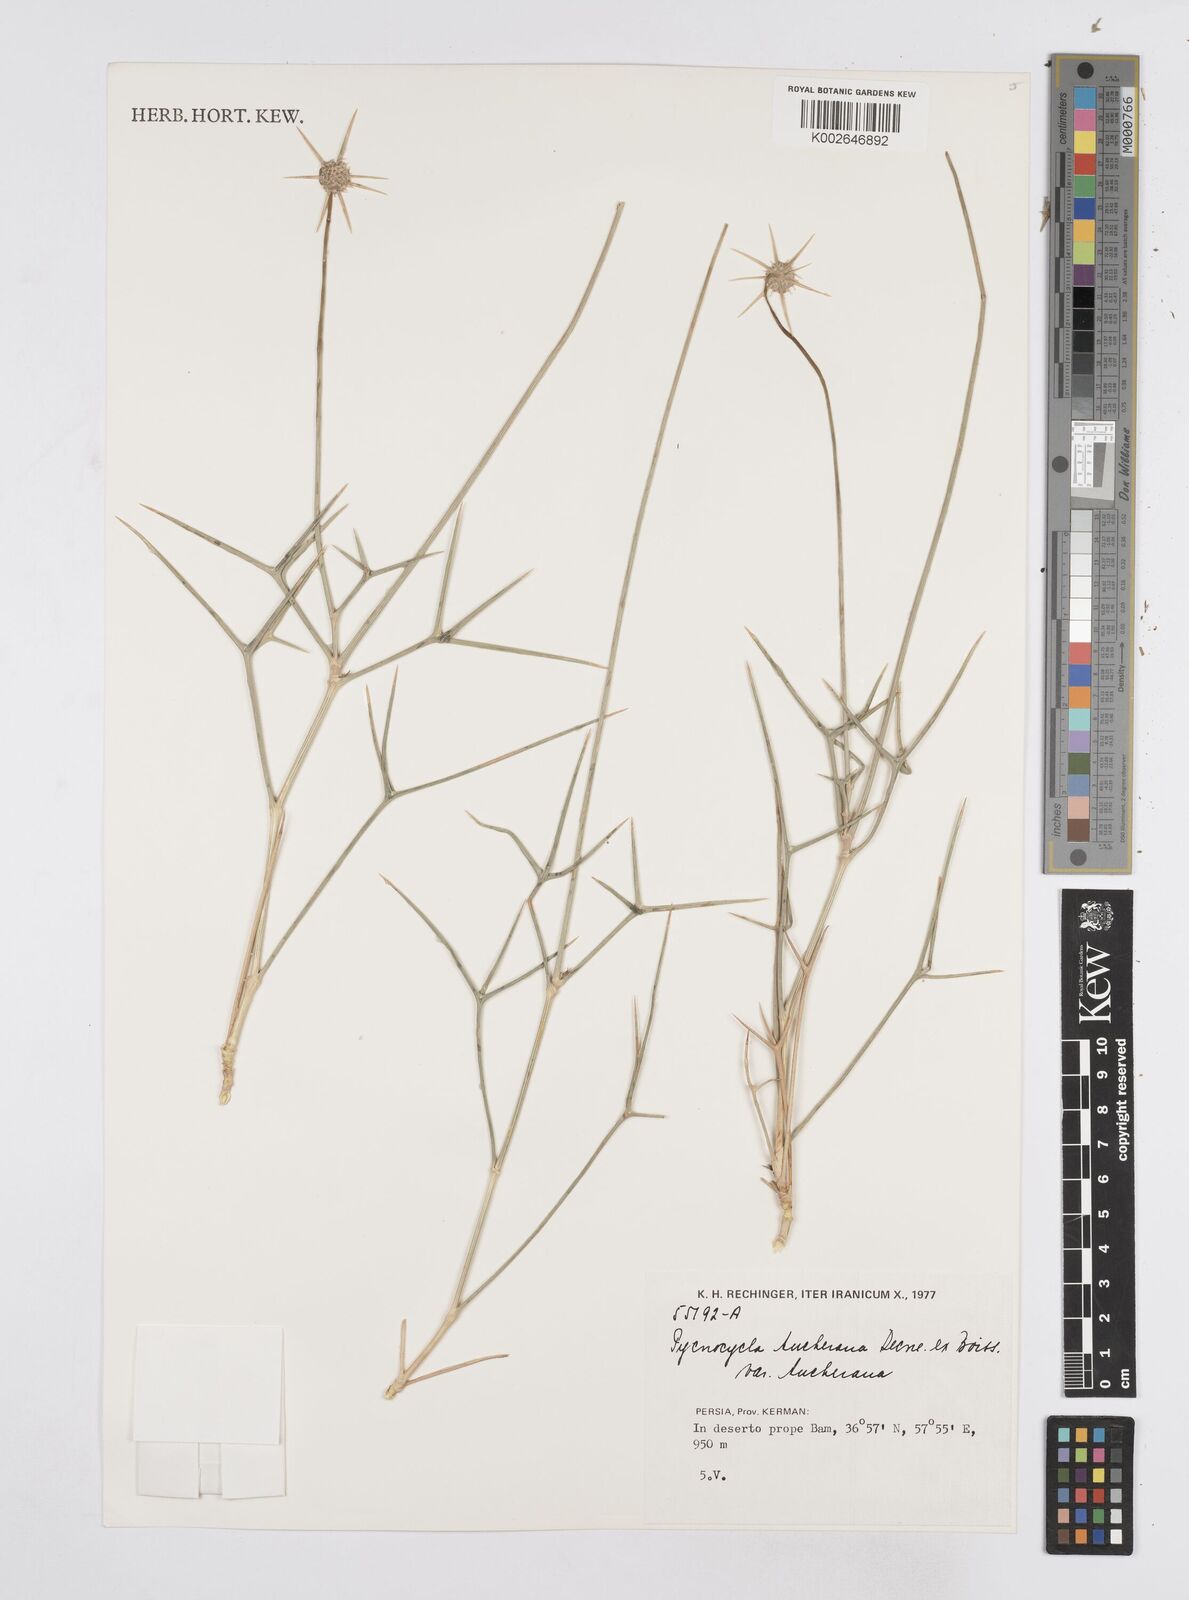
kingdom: Plantae
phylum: Tracheophyta
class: Magnoliopsida
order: Apiales
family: Apiaceae
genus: Pycnocycla
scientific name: Pycnocycla aucheriana
